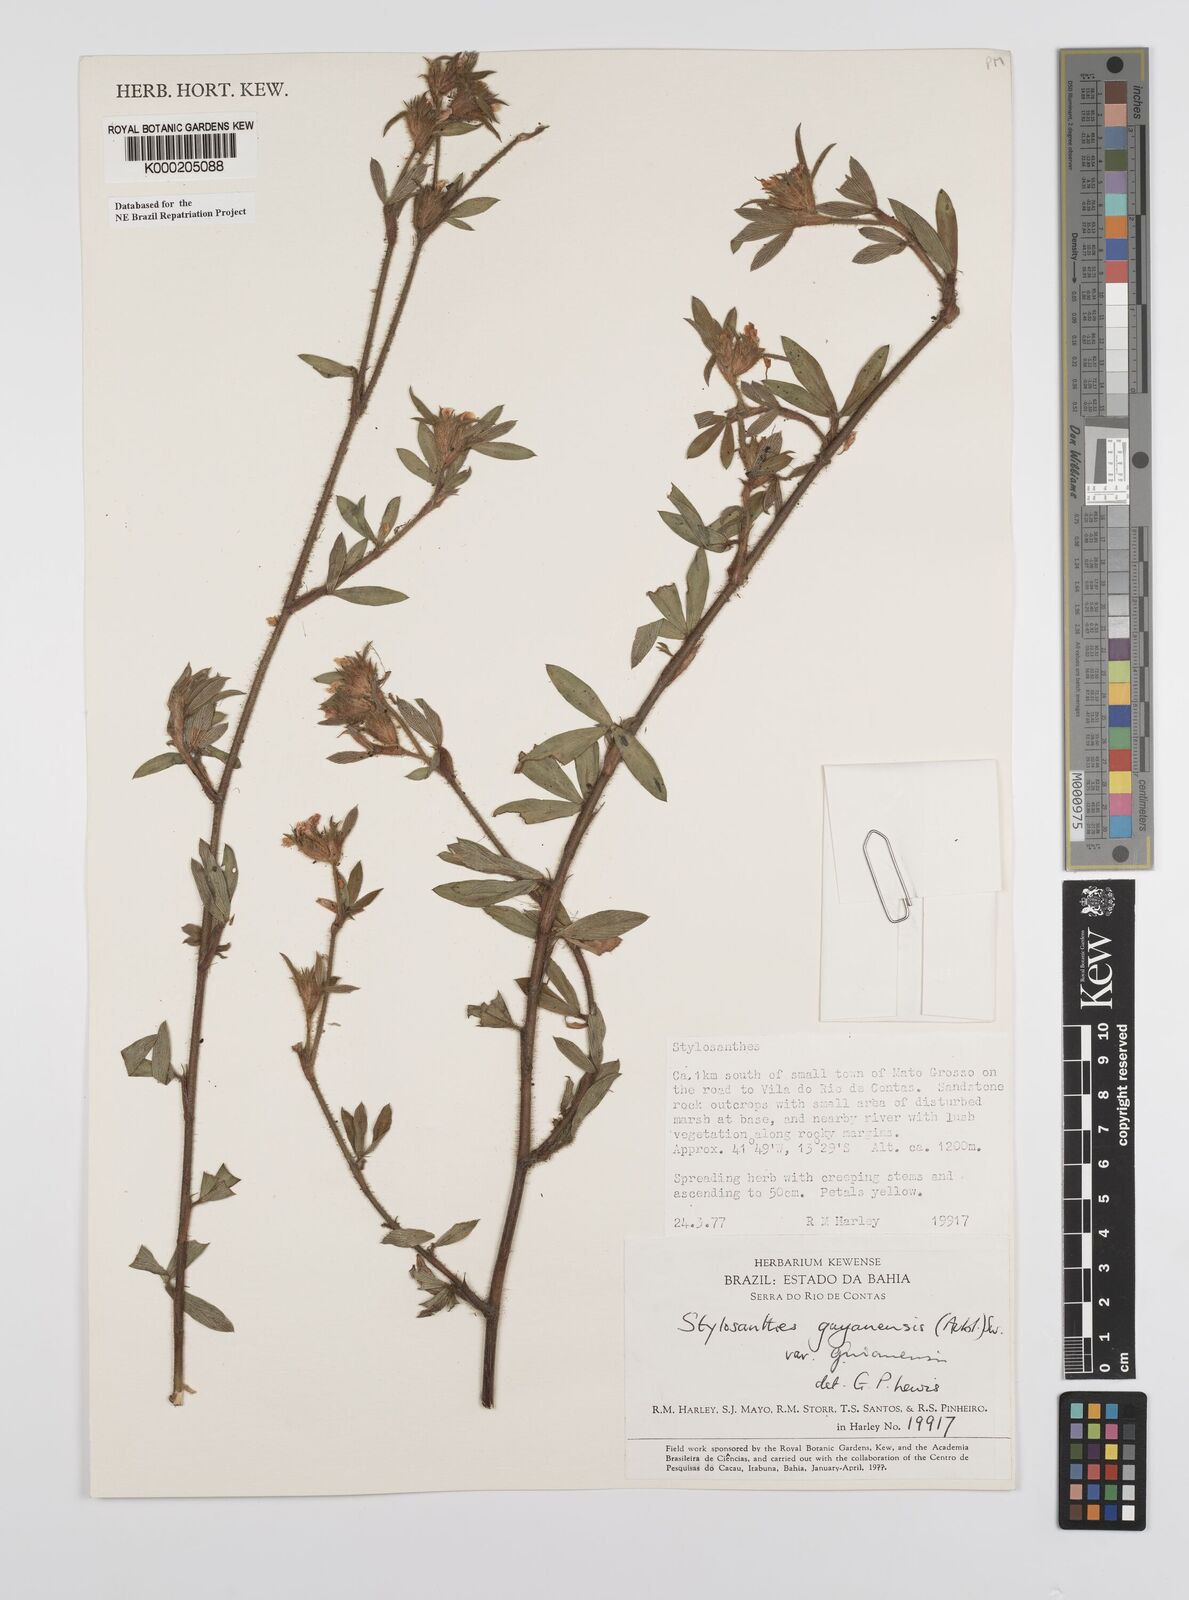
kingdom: Plantae
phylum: Tracheophyta
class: Magnoliopsida
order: Fabales
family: Fabaceae
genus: Stylosanthes
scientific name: Stylosanthes guianensis
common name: Pencil flower
